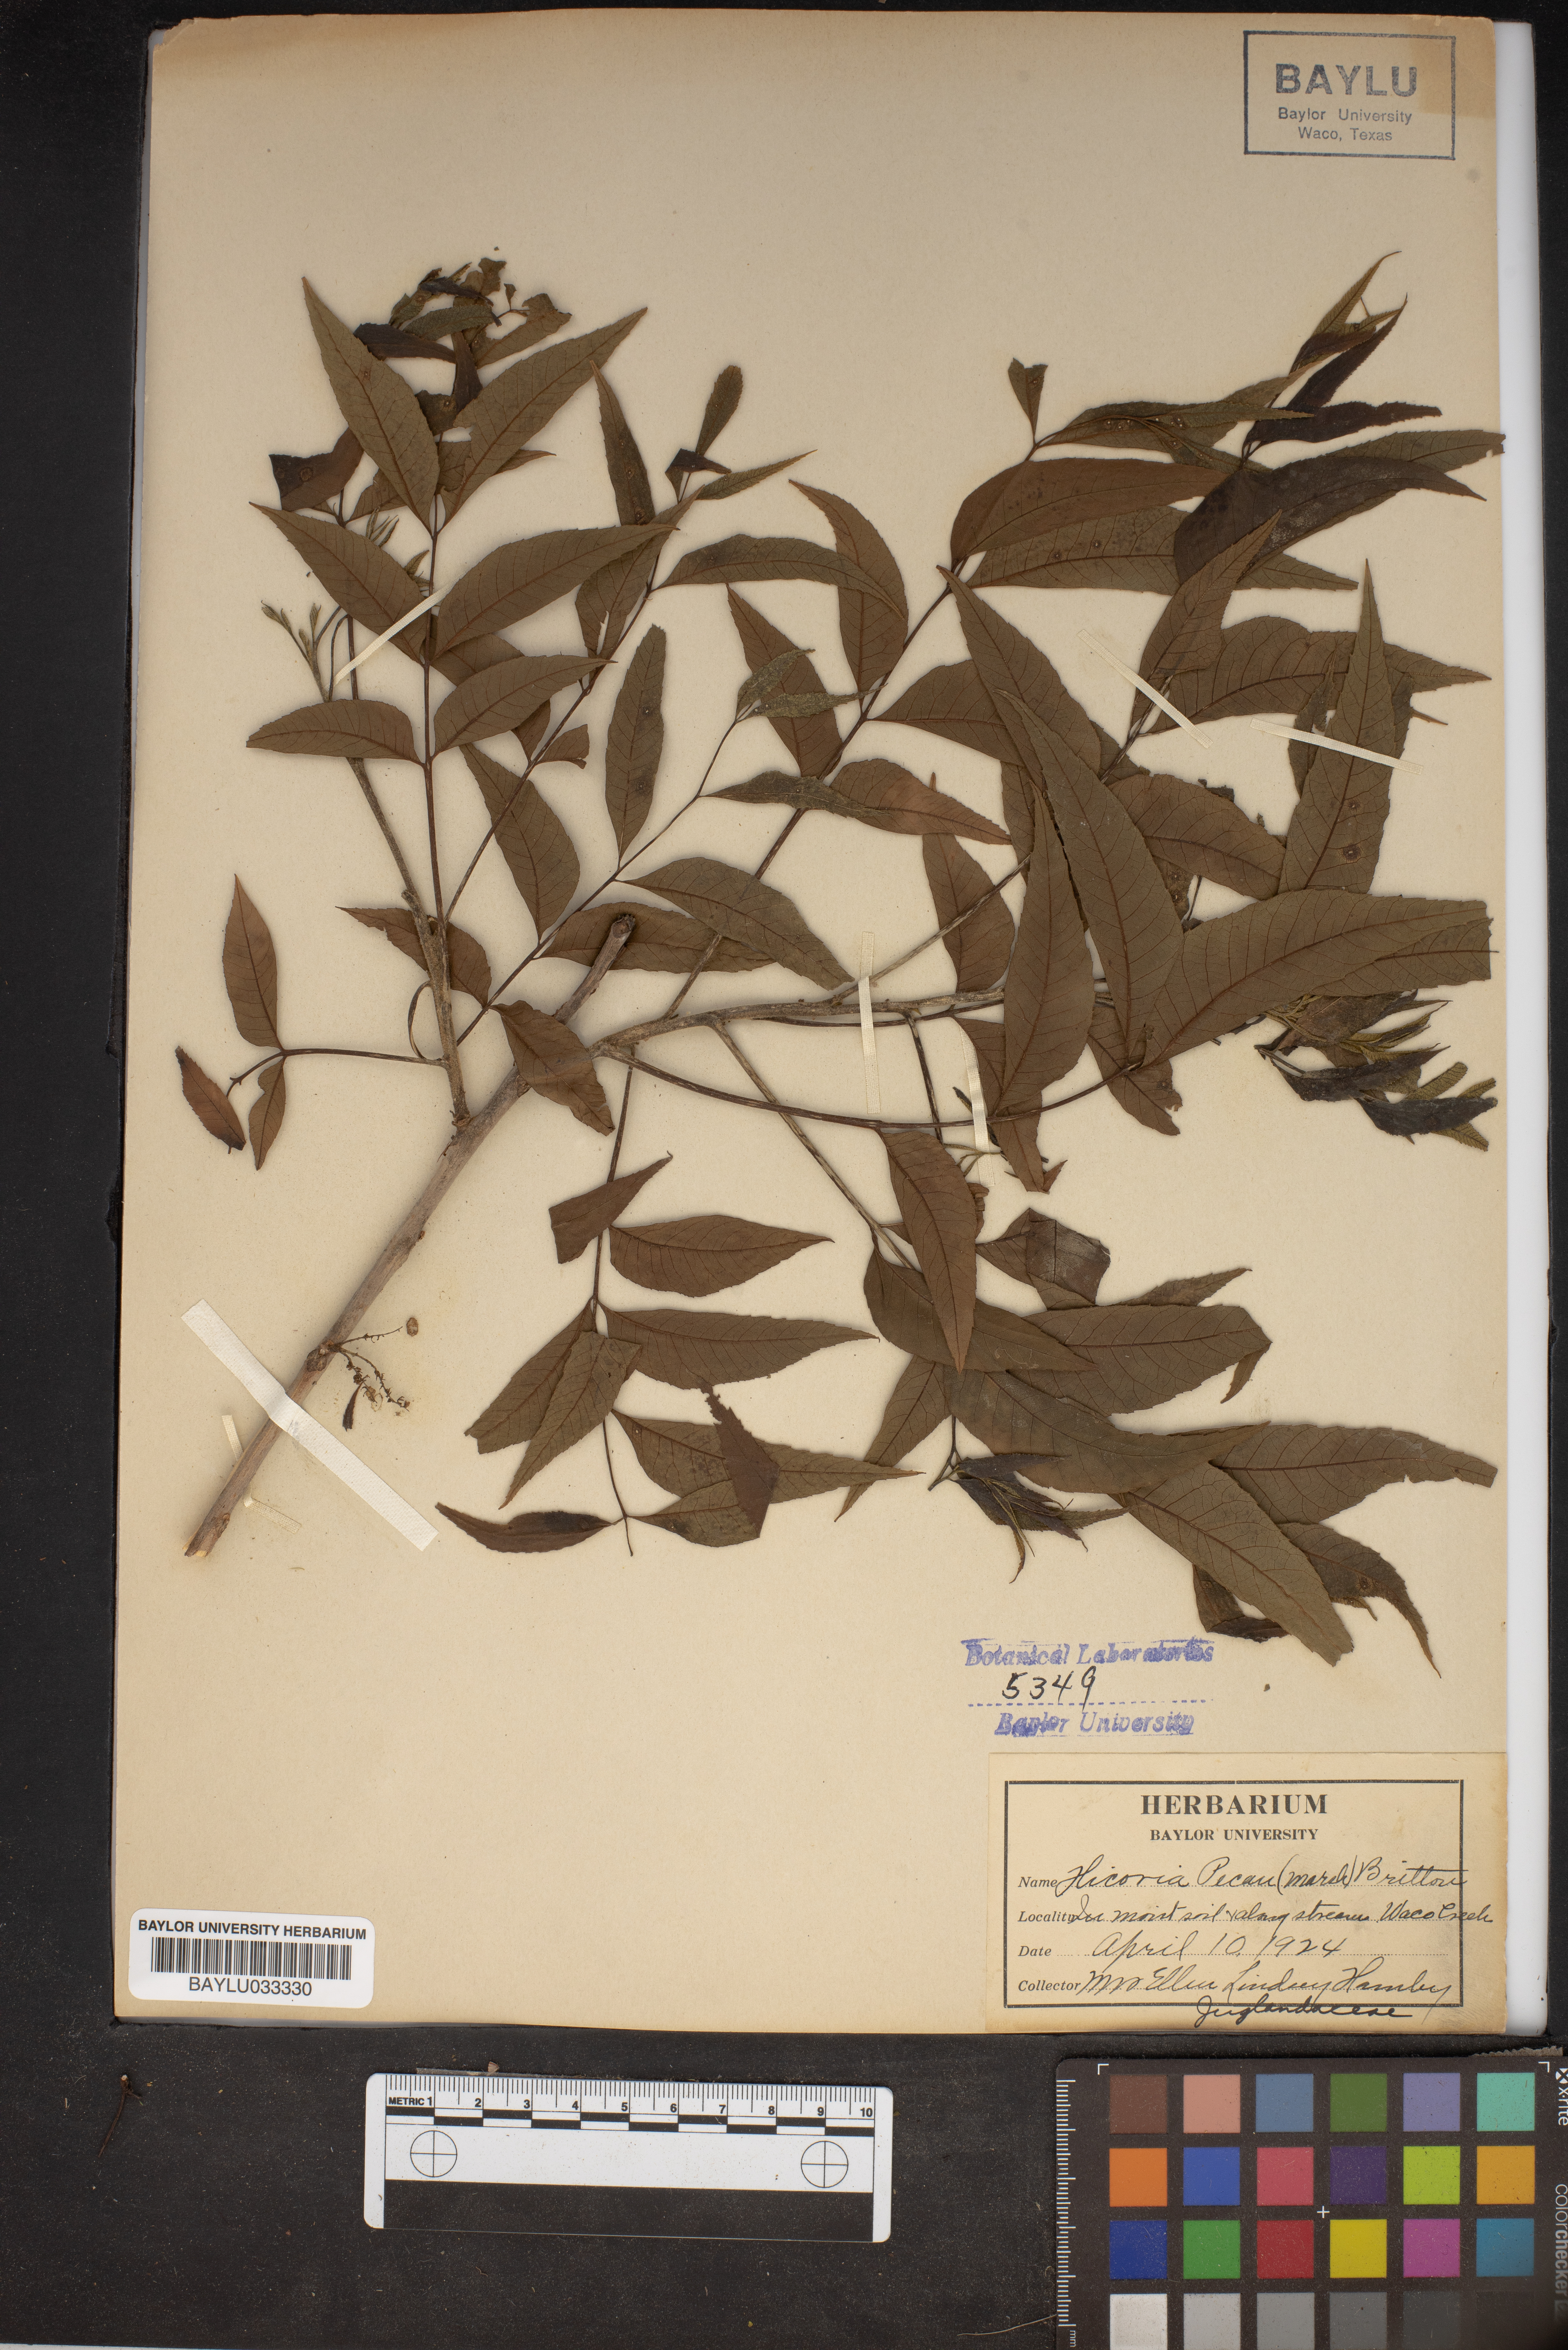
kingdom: Plantae
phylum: Tracheophyta
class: Magnoliopsida
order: Fagales
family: Juglandaceae
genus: Carya
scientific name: Carya illinoinensis
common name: Pecan
